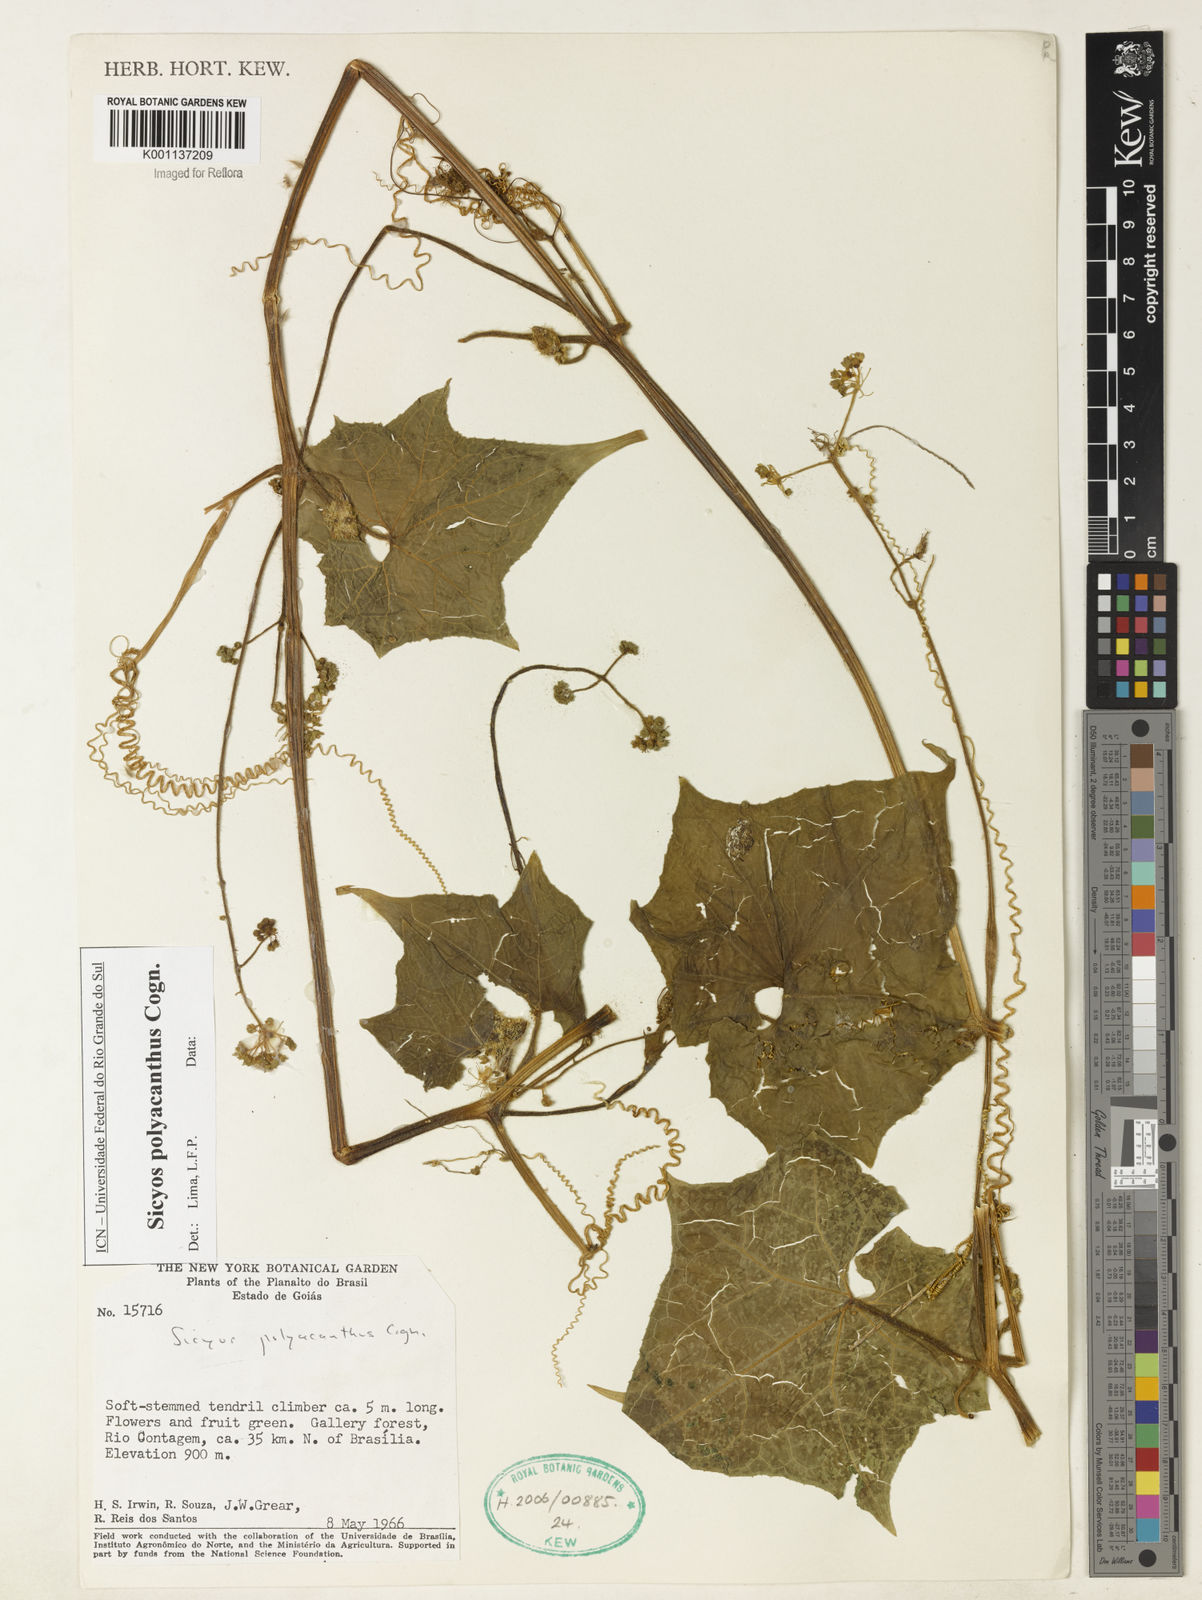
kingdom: Plantae
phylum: Tracheophyta
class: Magnoliopsida
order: Cucurbitales
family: Cucurbitaceae
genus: Sicyos
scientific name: Sicyos polyacanthos
